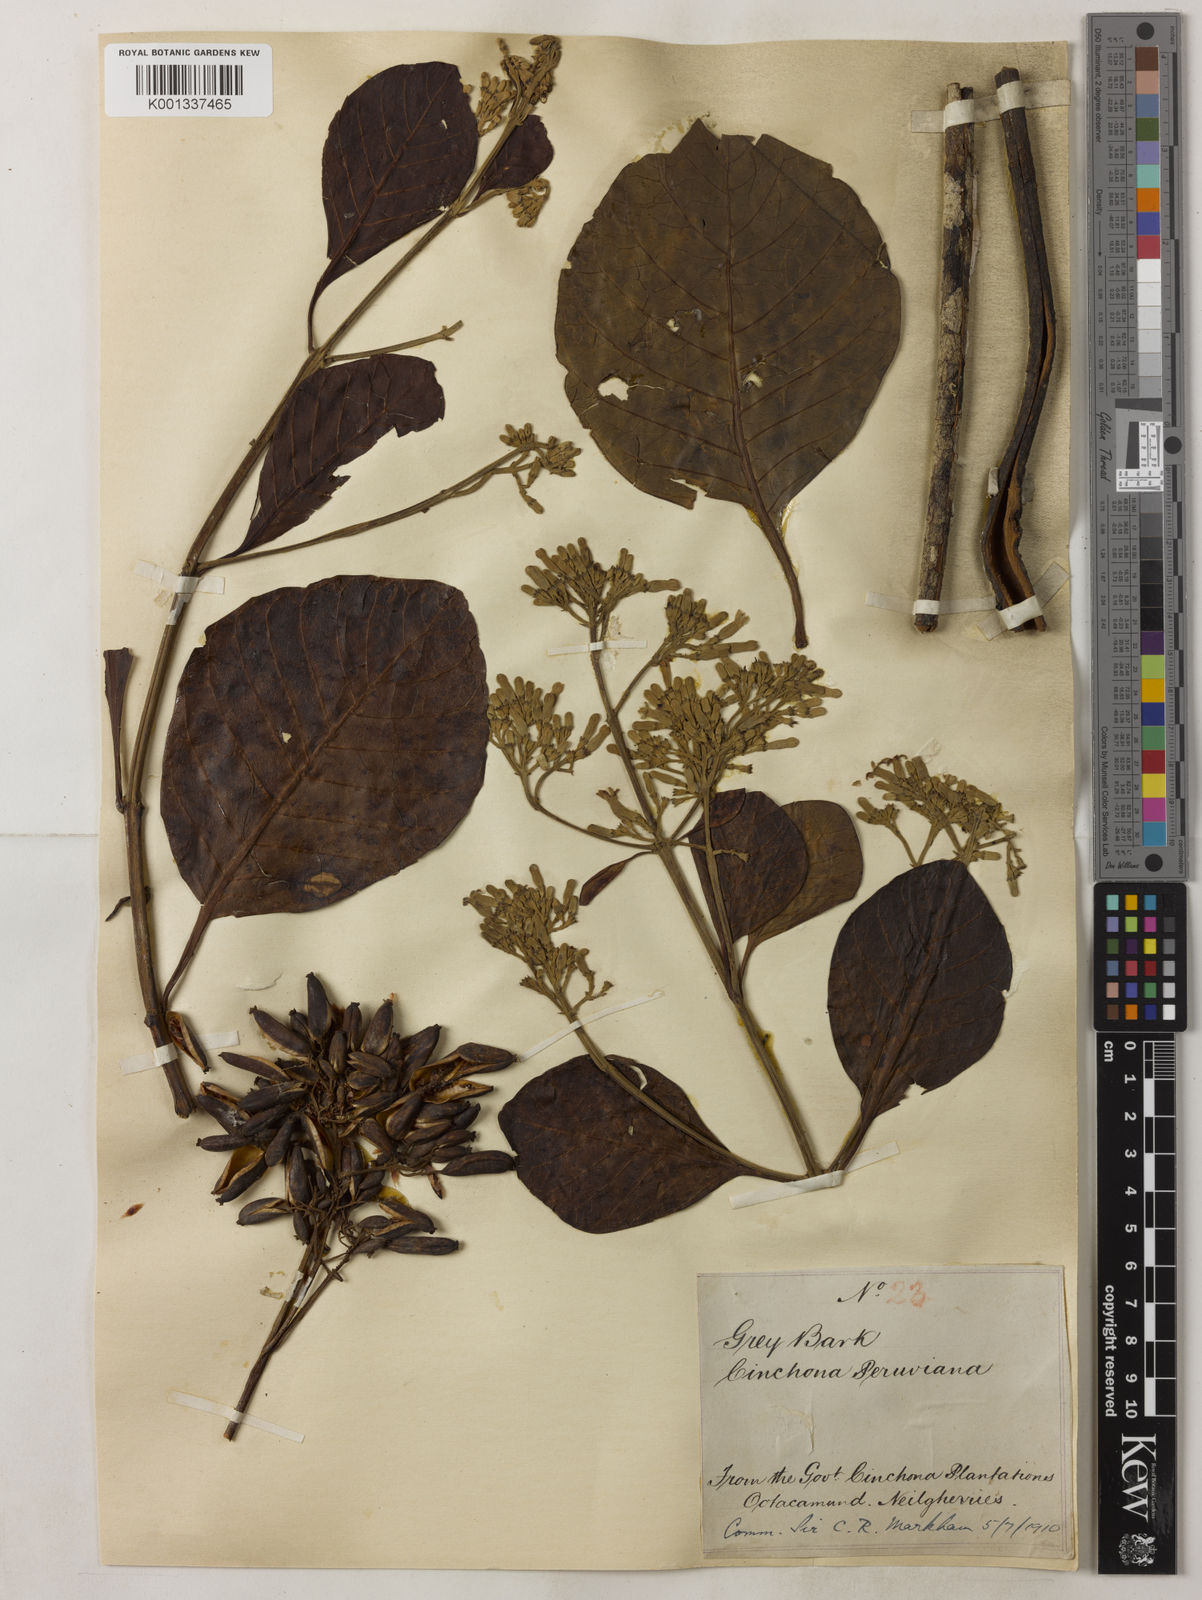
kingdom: Plantae
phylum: Tracheophyta
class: Magnoliopsida
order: Gentianales
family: Rubiaceae
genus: Cinchona
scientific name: Cinchona calisaya
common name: Ledgerbark
